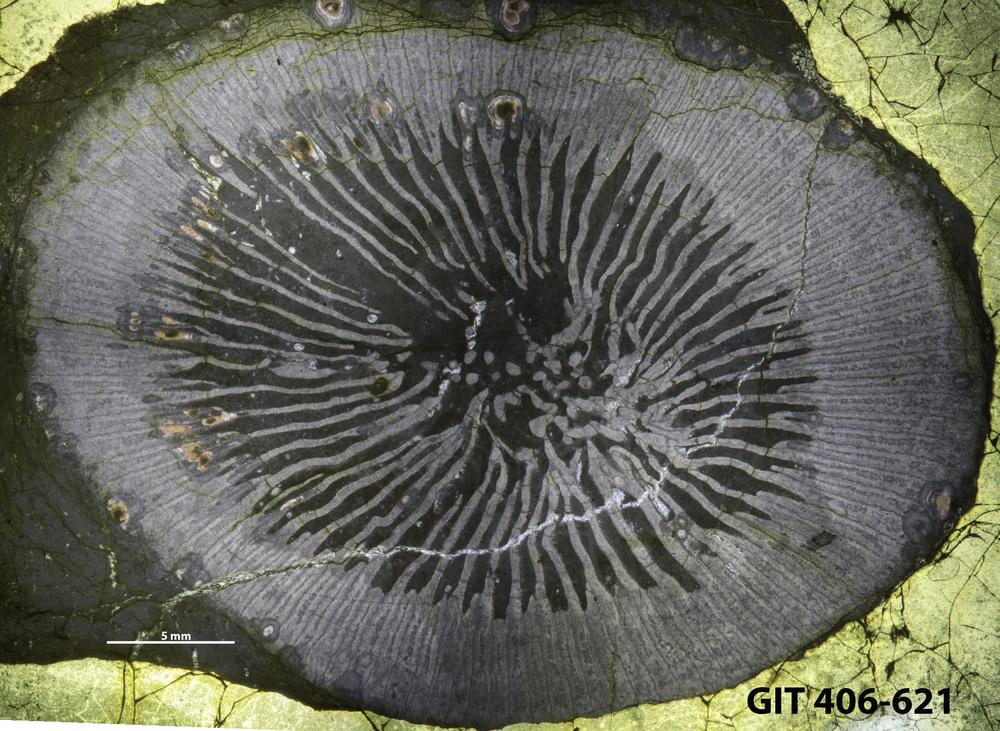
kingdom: Animalia
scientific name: Animalia
